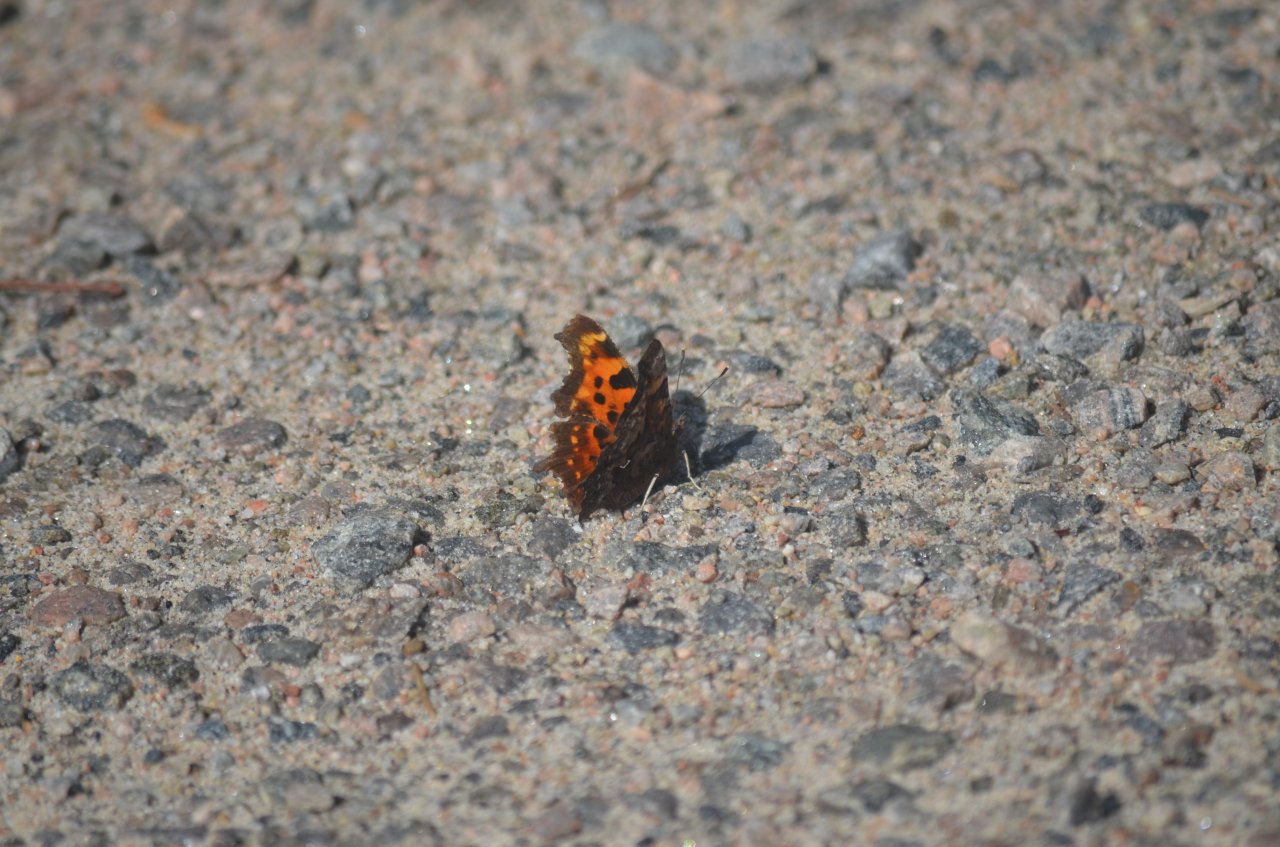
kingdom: Animalia
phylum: Arthropoda
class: Insecta
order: Lepidoptera
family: Nymphalidae
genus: Polygonia
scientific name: Polygonia faunus
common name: Green Comma
